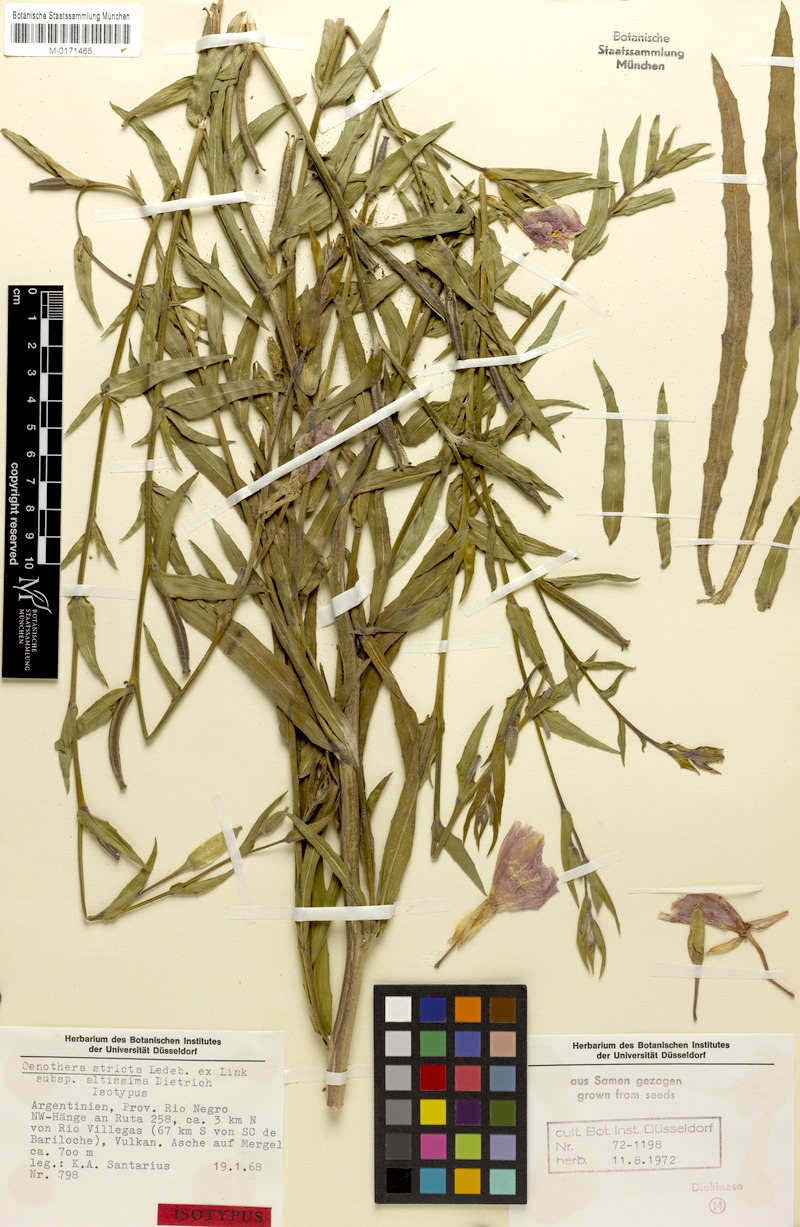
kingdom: Plantae
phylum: Tracheophyta
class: Magnoliopsida
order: Myrtales
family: Onagraceae
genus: Oenothera
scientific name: Oenothera stricta
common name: Fragrant evening-primrose
